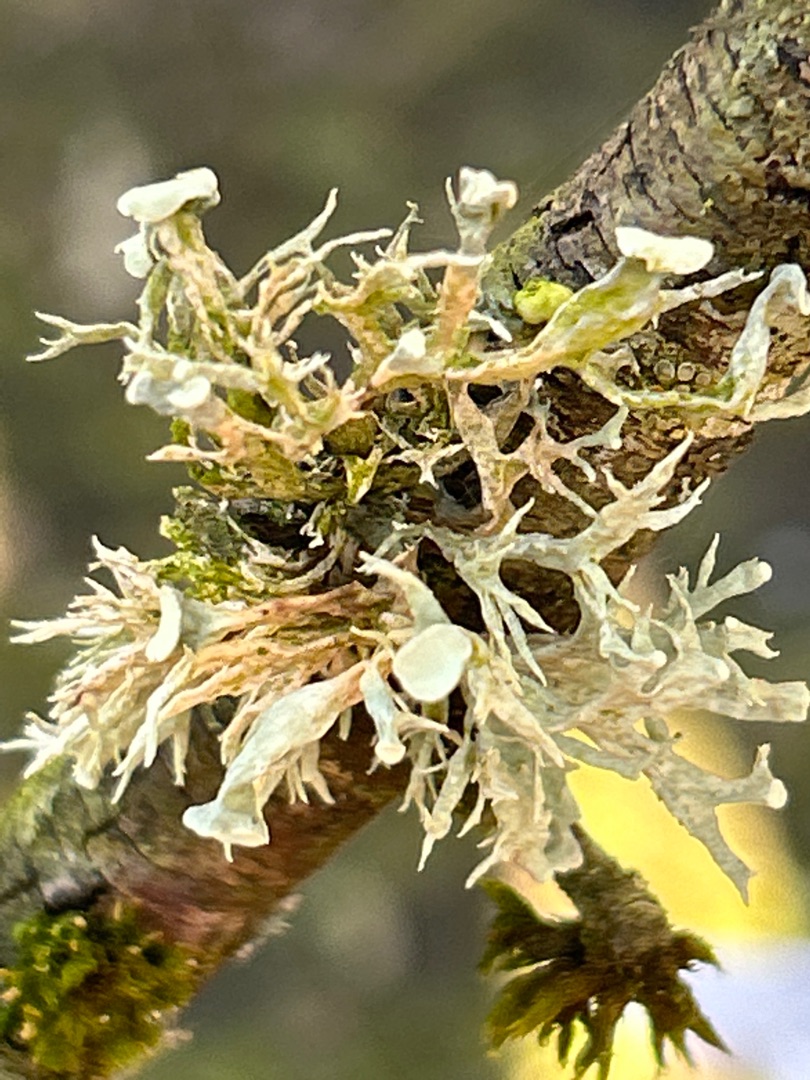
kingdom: Fungi
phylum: Ascomycota
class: Lecanoromycetes
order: Lecanorales
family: Ramalinaceae
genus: Ramalina
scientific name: Ramalina fastigiata
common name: Tue-grenlav
